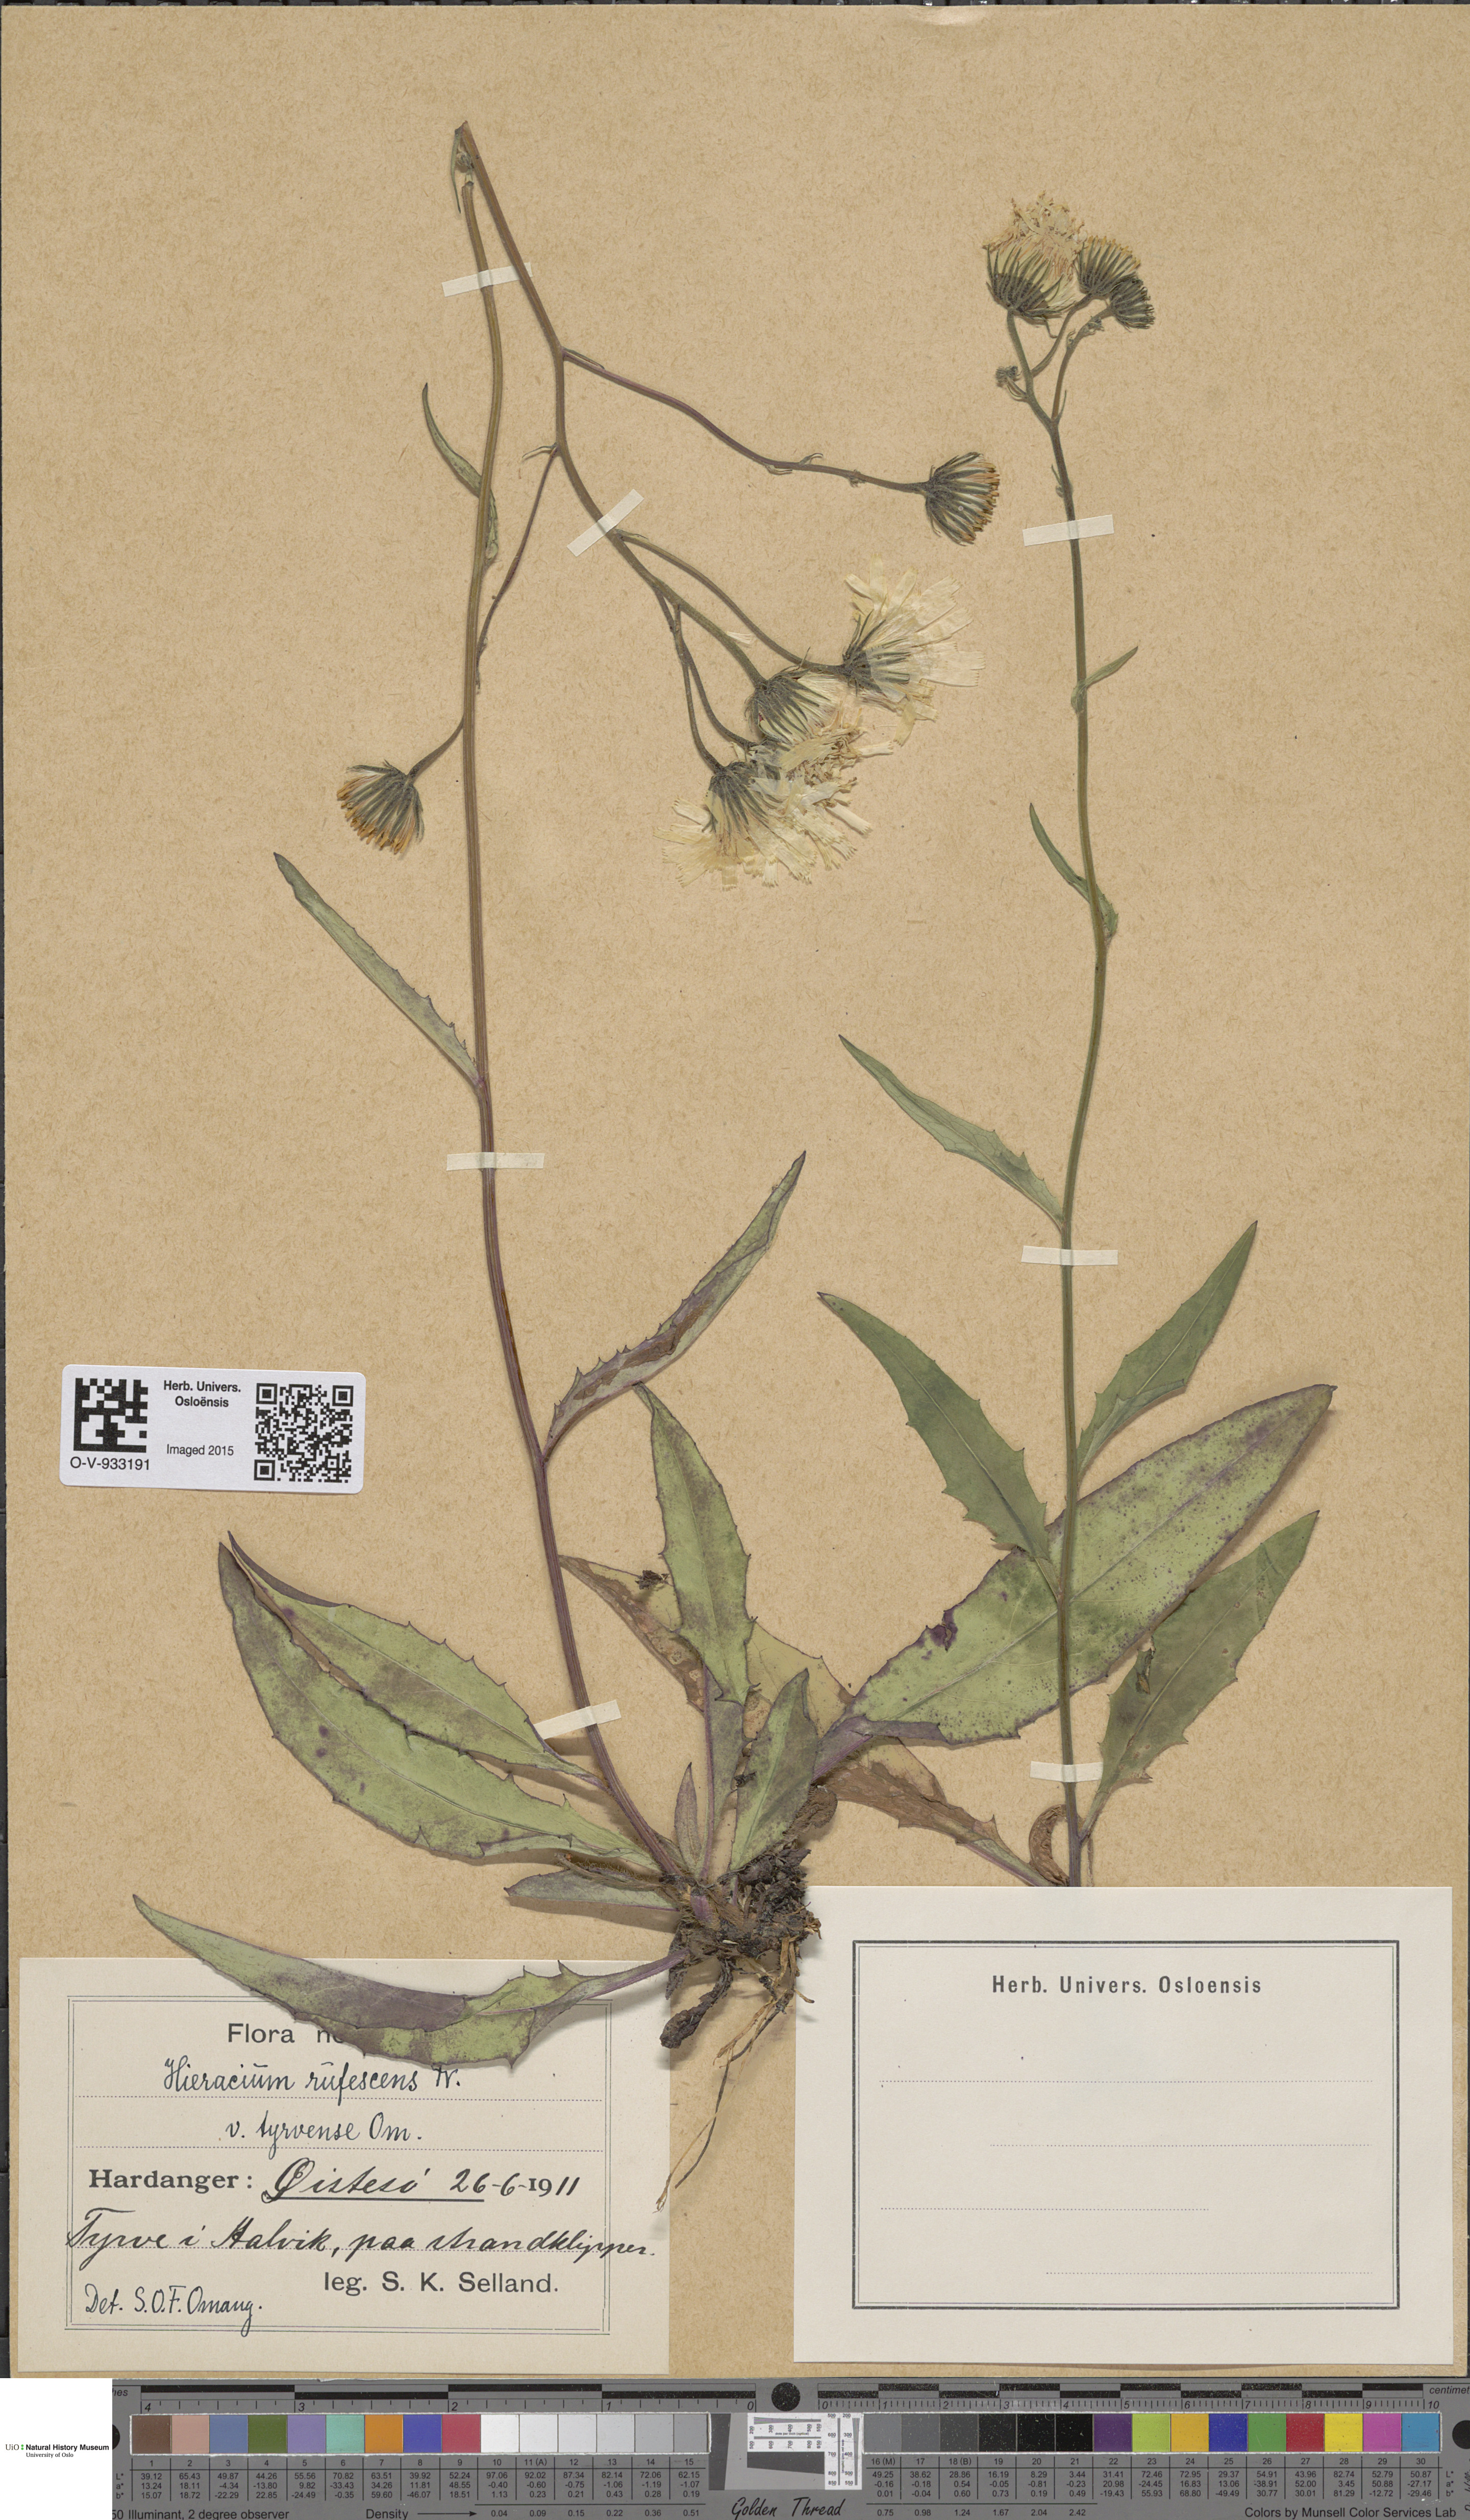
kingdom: Plantae
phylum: Tracheophyta
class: Magnoliopsida
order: Asterales
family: Asteraceae
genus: Hieracium
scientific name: Hieracium
